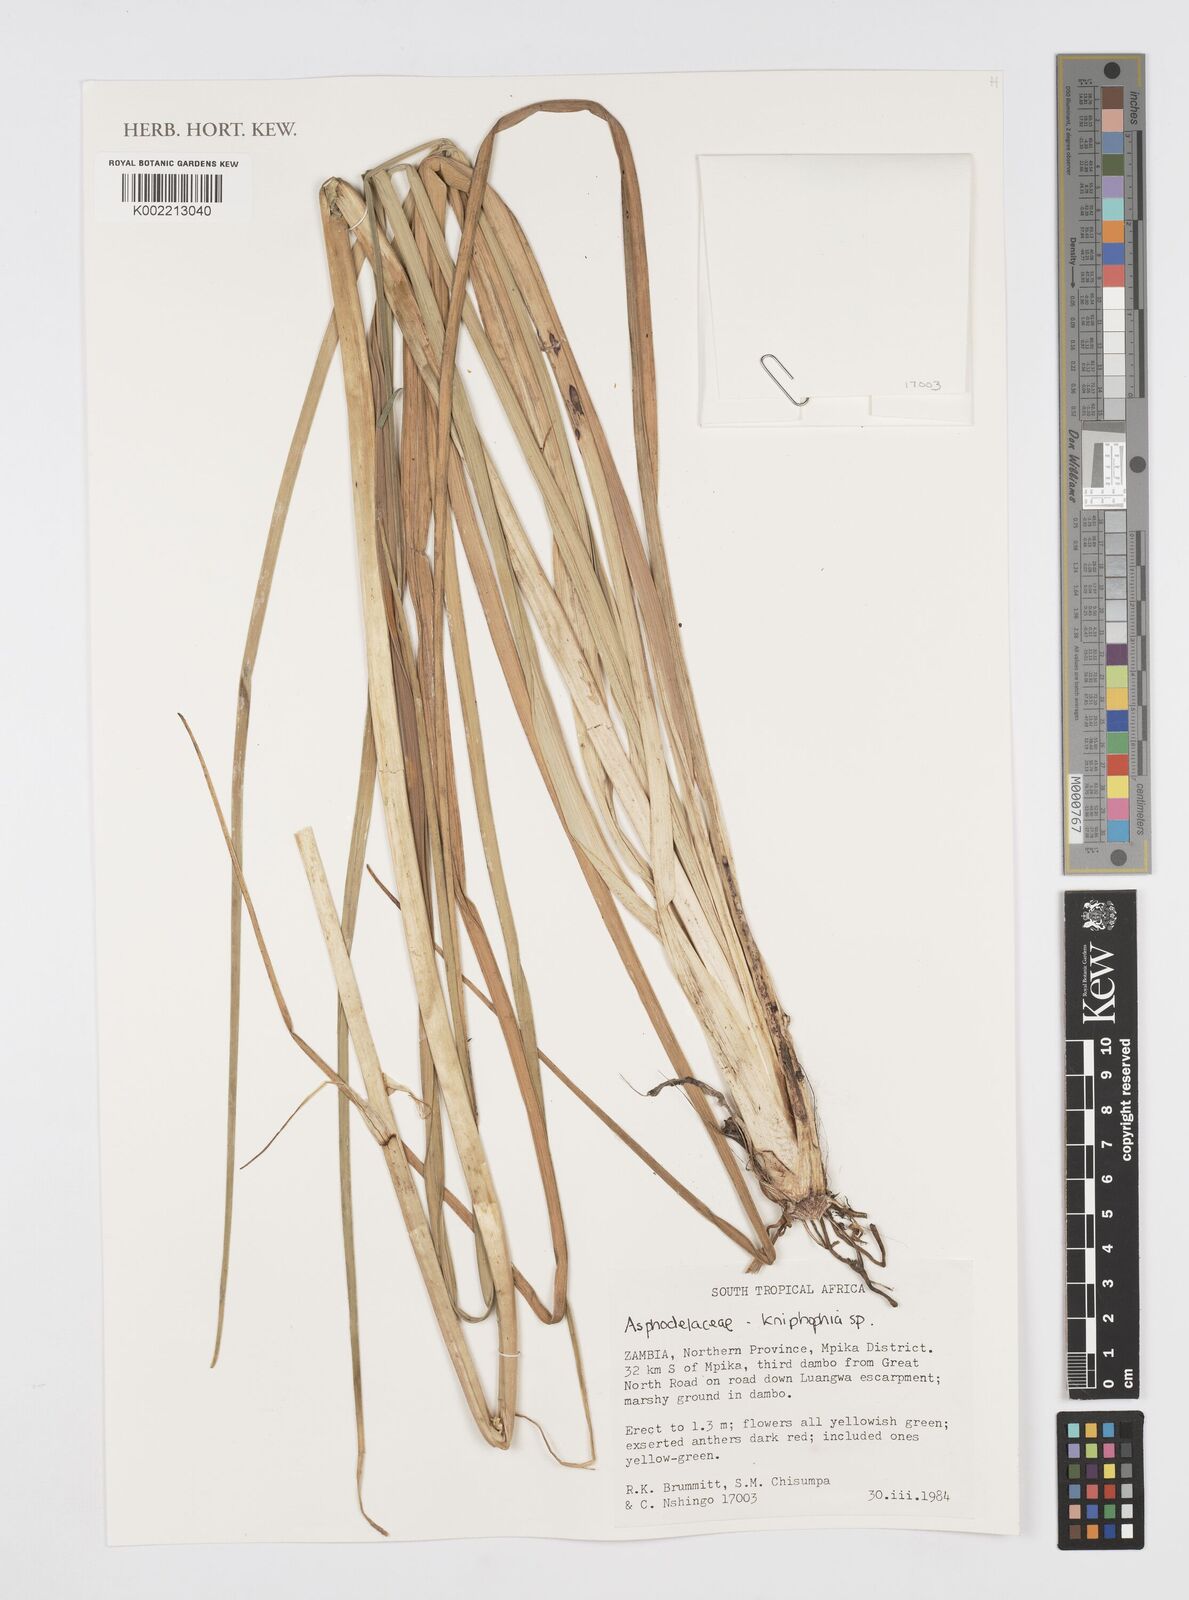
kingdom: Plantae
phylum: Tracheophyta
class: Liliopsida
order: Asparagales
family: Asphodelaceae
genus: Kniphofia
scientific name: Kniphofia
